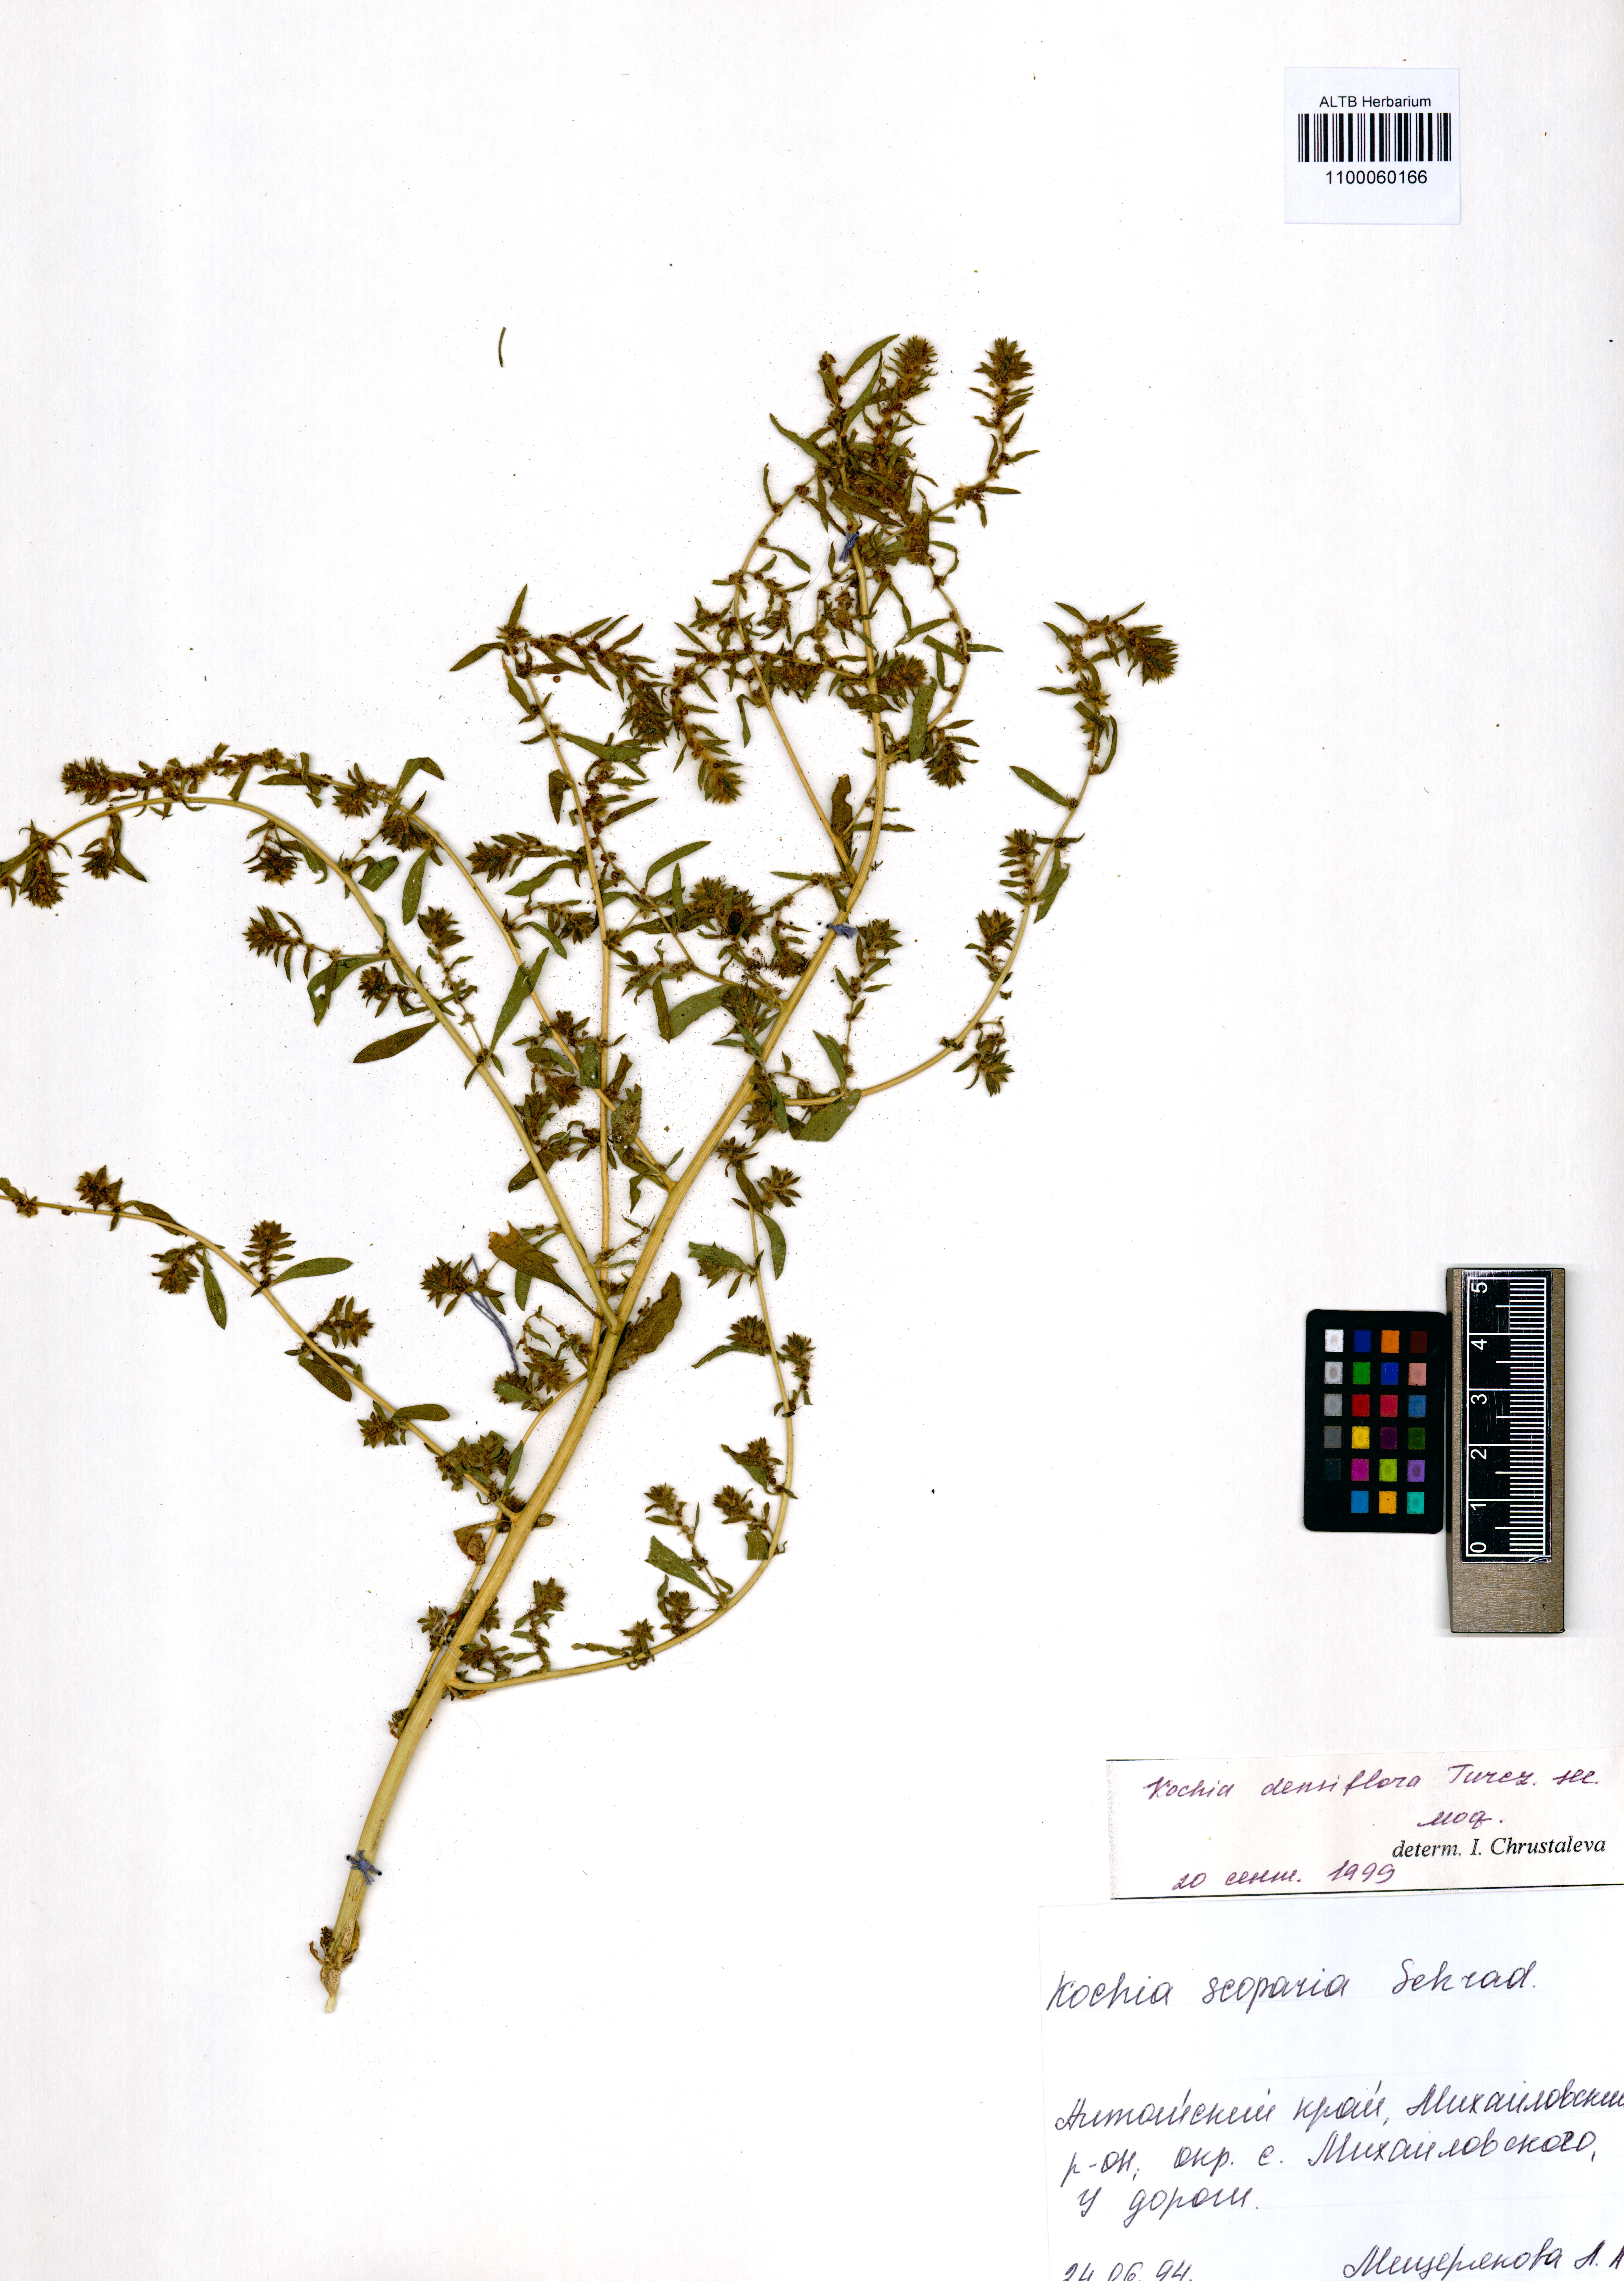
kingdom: Plantae
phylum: Tracheophyta
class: Magnoliopsida
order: Caryophyllales
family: Amaranthaceae
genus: Bassia
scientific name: Bassia scoparia
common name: Belvedere
